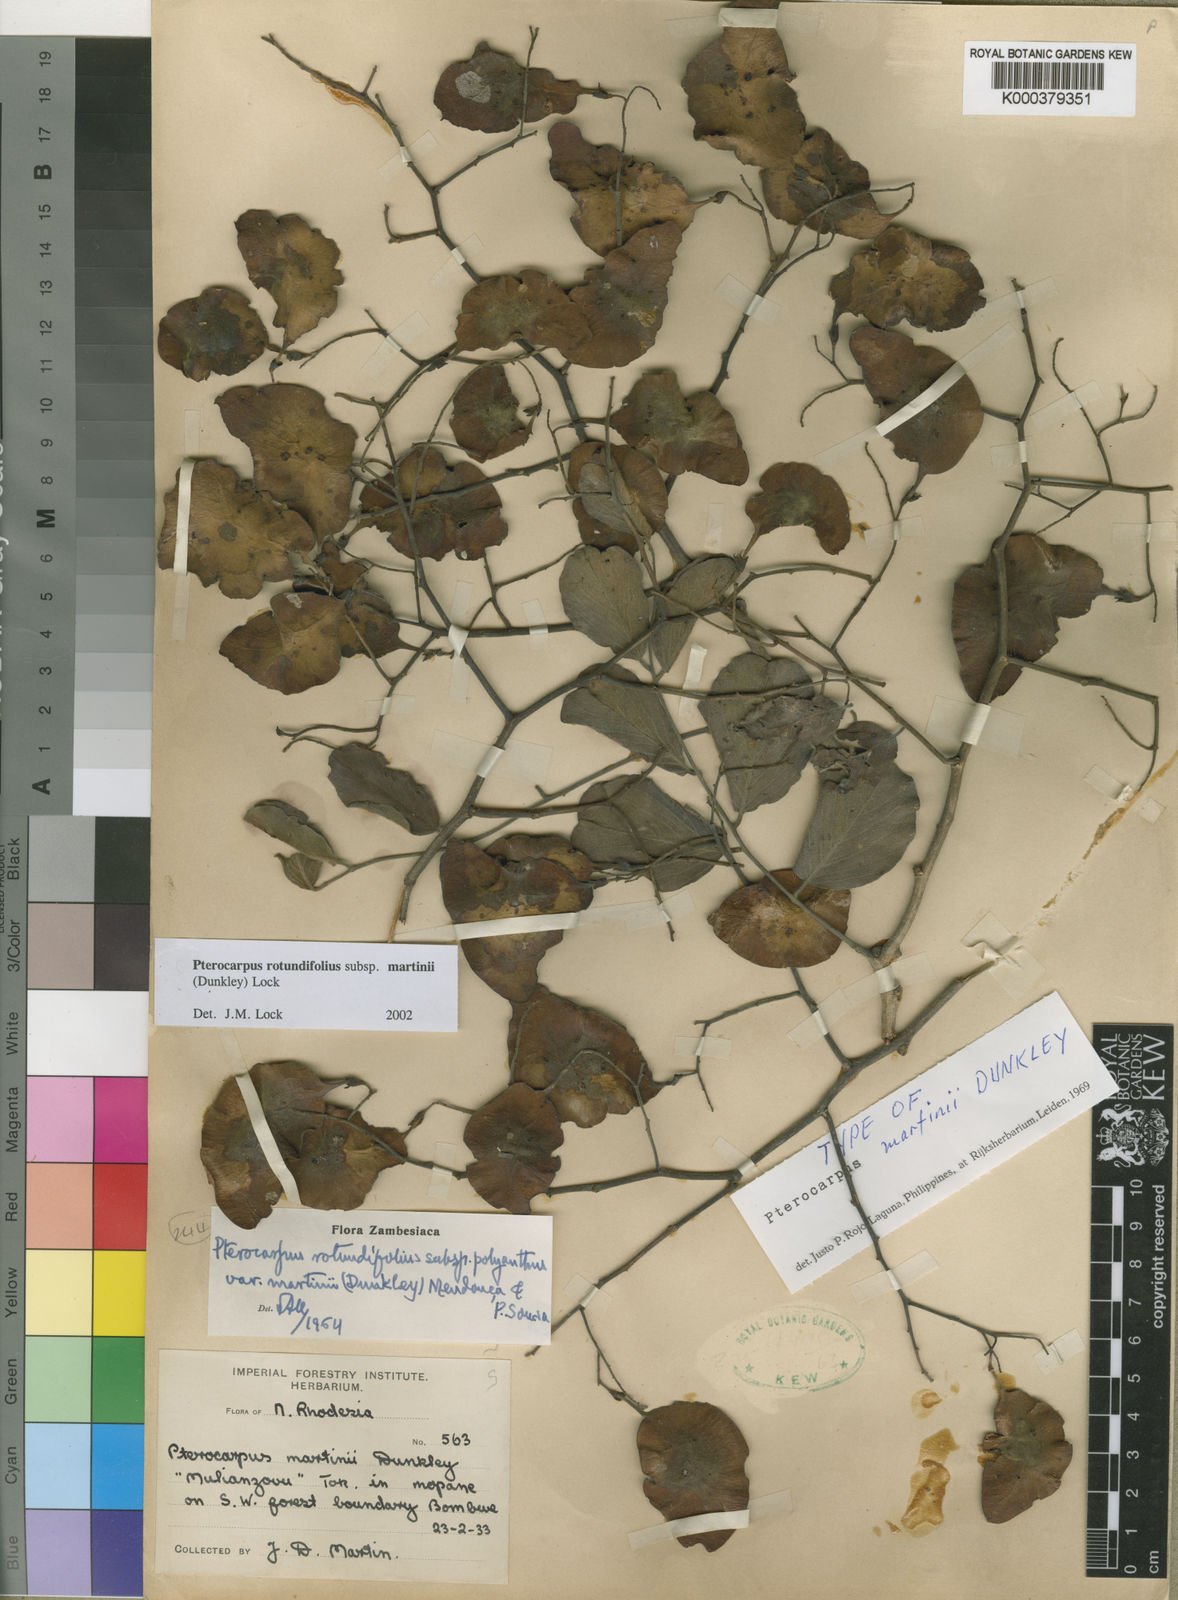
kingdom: Plantae
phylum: Tracheophyta
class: Magnoliopsida
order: Fabales
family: Fabaceae
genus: Pterocarpus
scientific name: Pterocarpus rotundifolius
